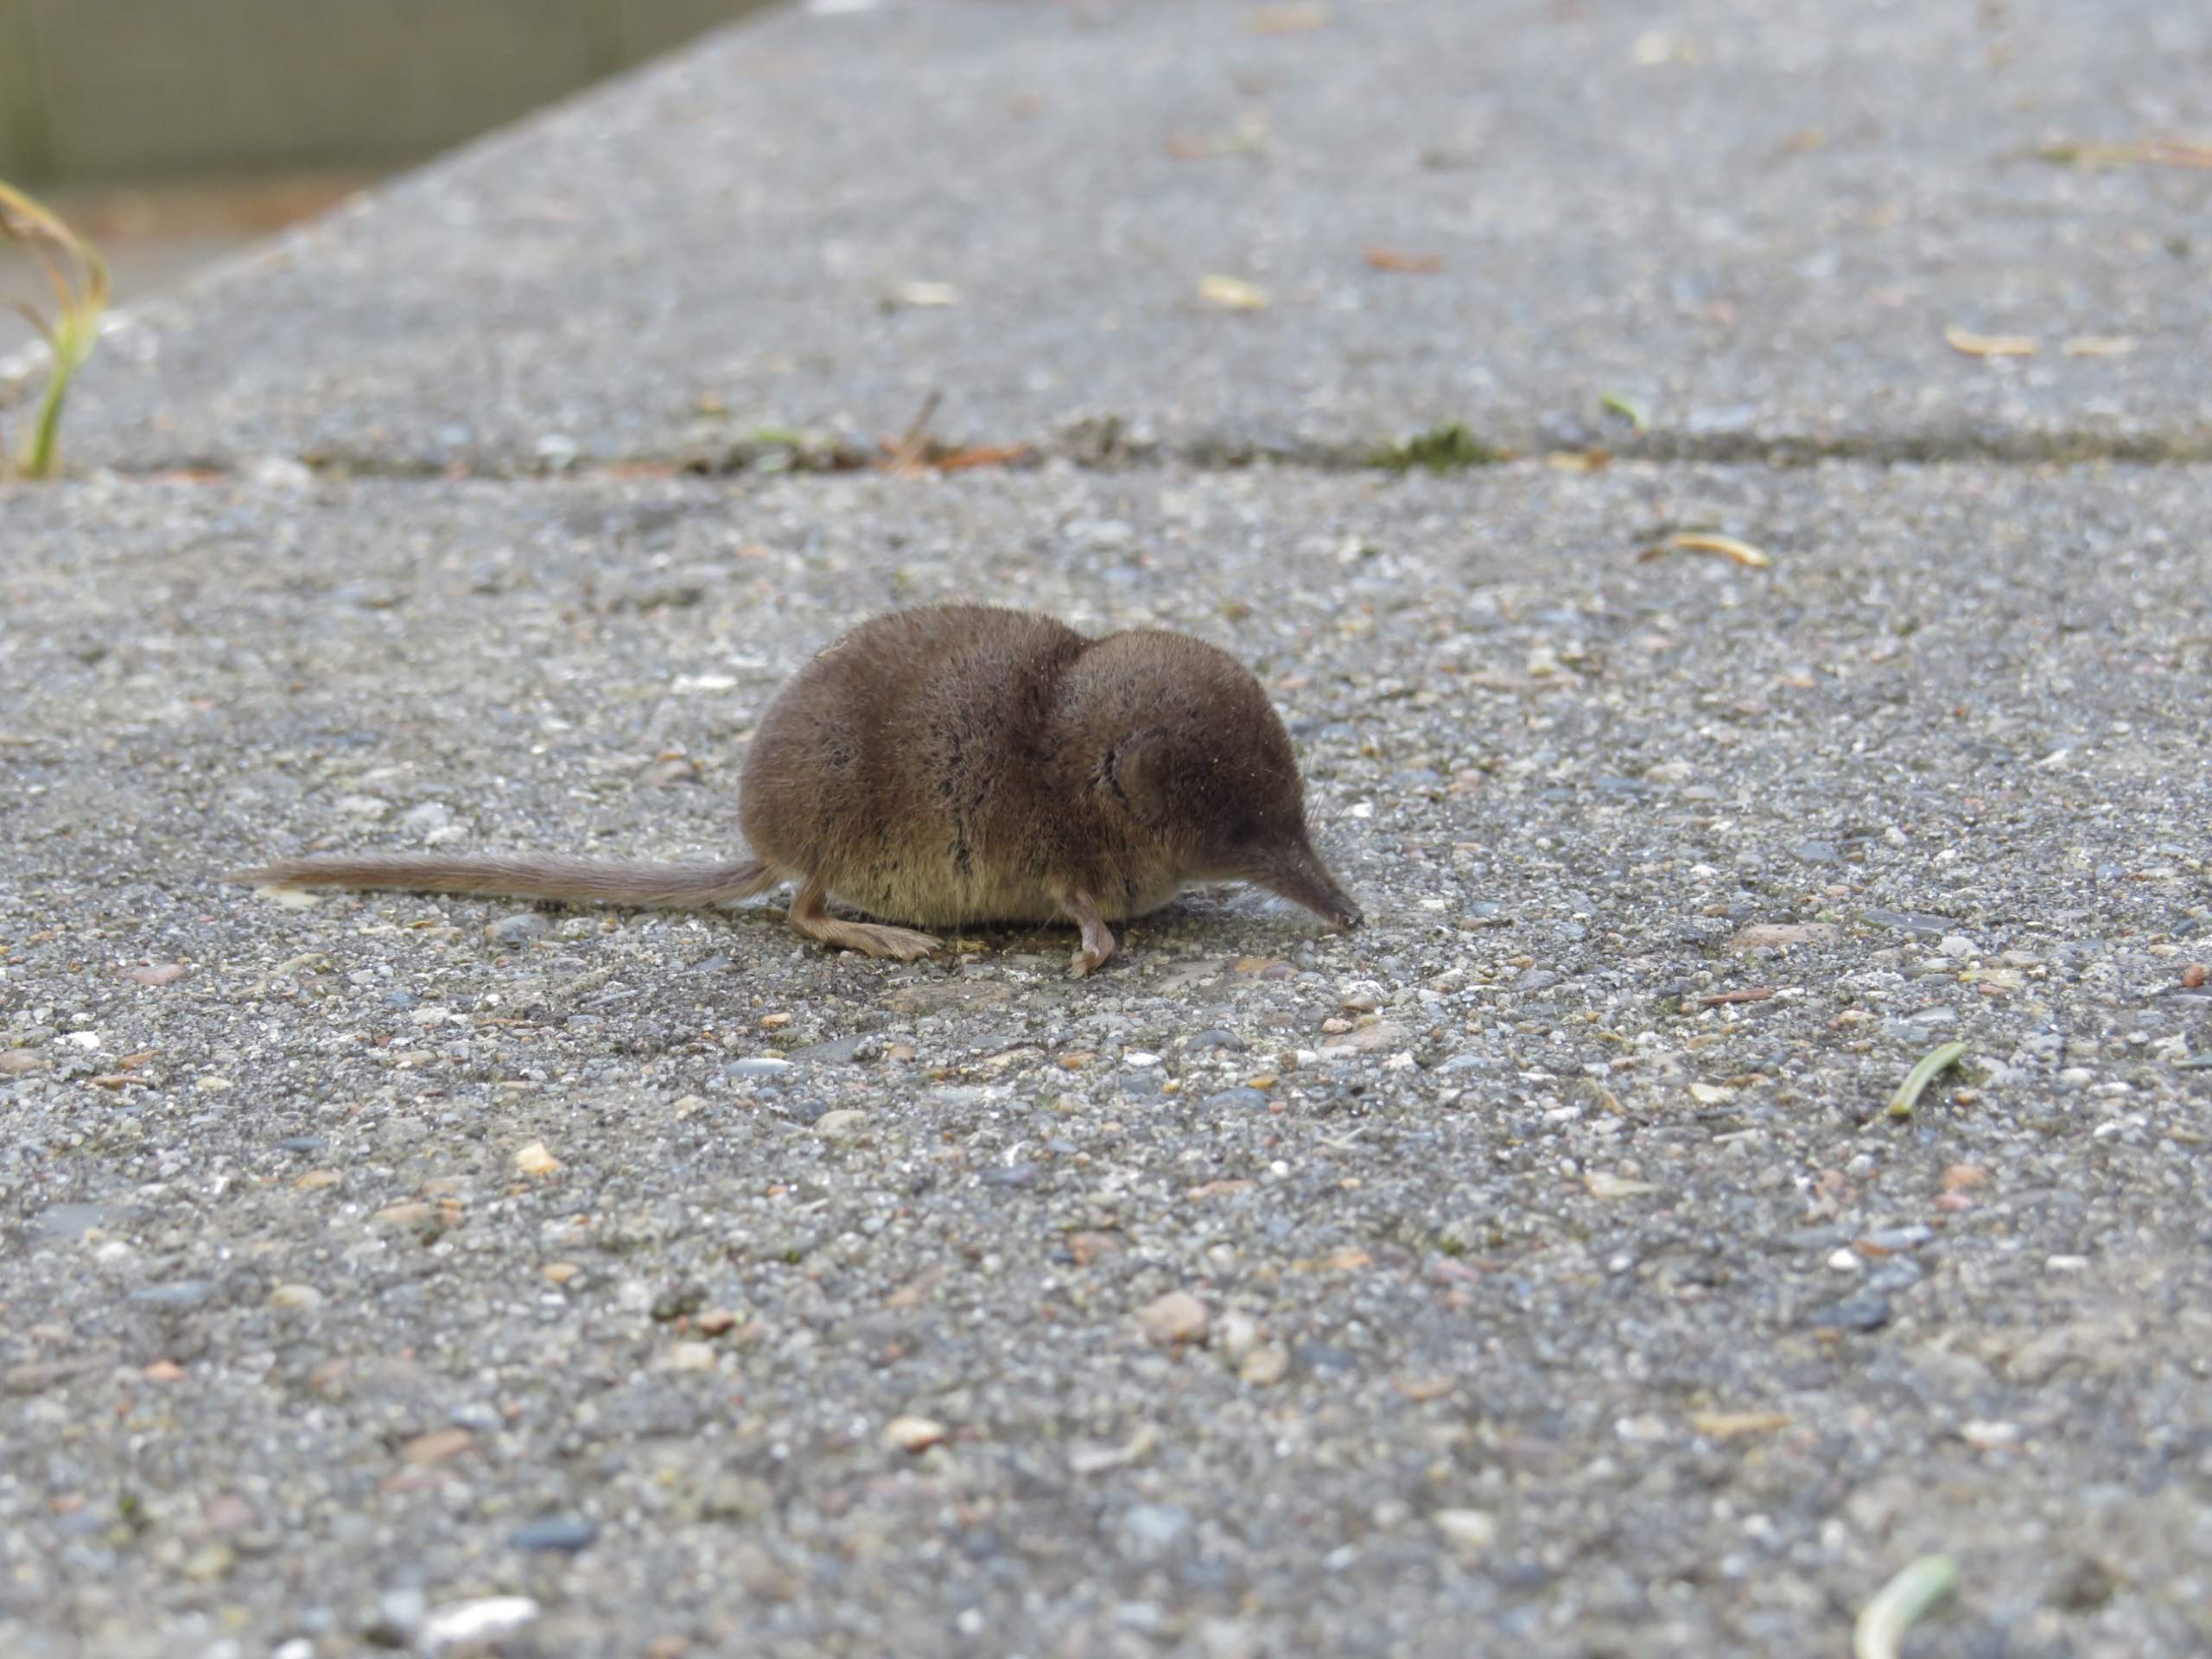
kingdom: Animalia
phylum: Chordata
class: Mammalia
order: Soricomorpha
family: Soricidae
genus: Sorex
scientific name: Sorex minutus
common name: Dværgspidsmus
